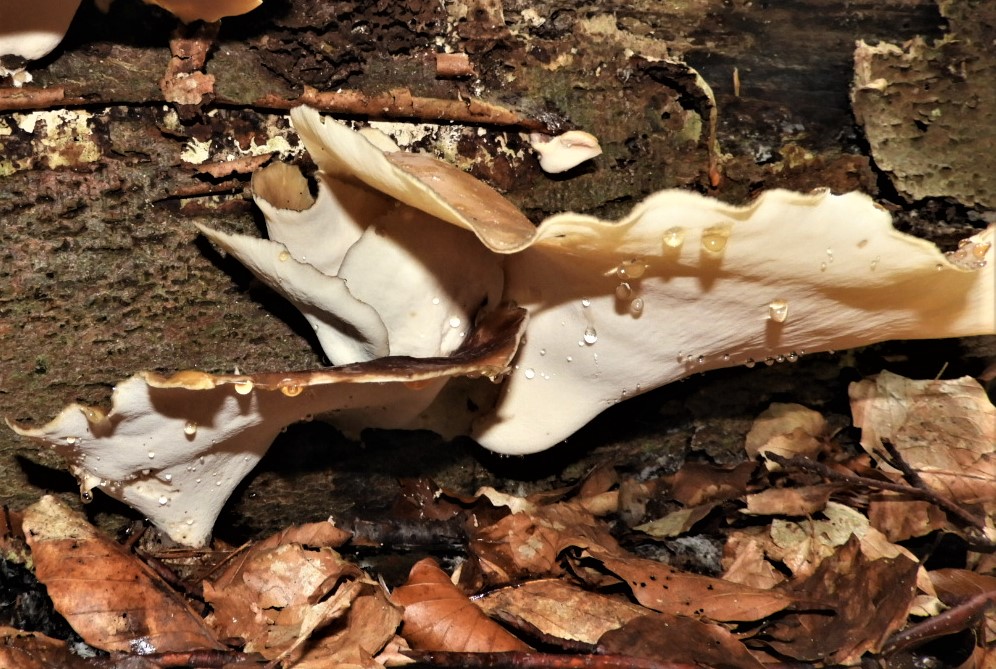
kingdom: Fungi
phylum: Basidiomycota
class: Agaricomycetes
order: Polyporales
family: Polyporaceae
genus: Picipes
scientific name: Picipes badius
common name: kastaniebrun stilkporesvamp
